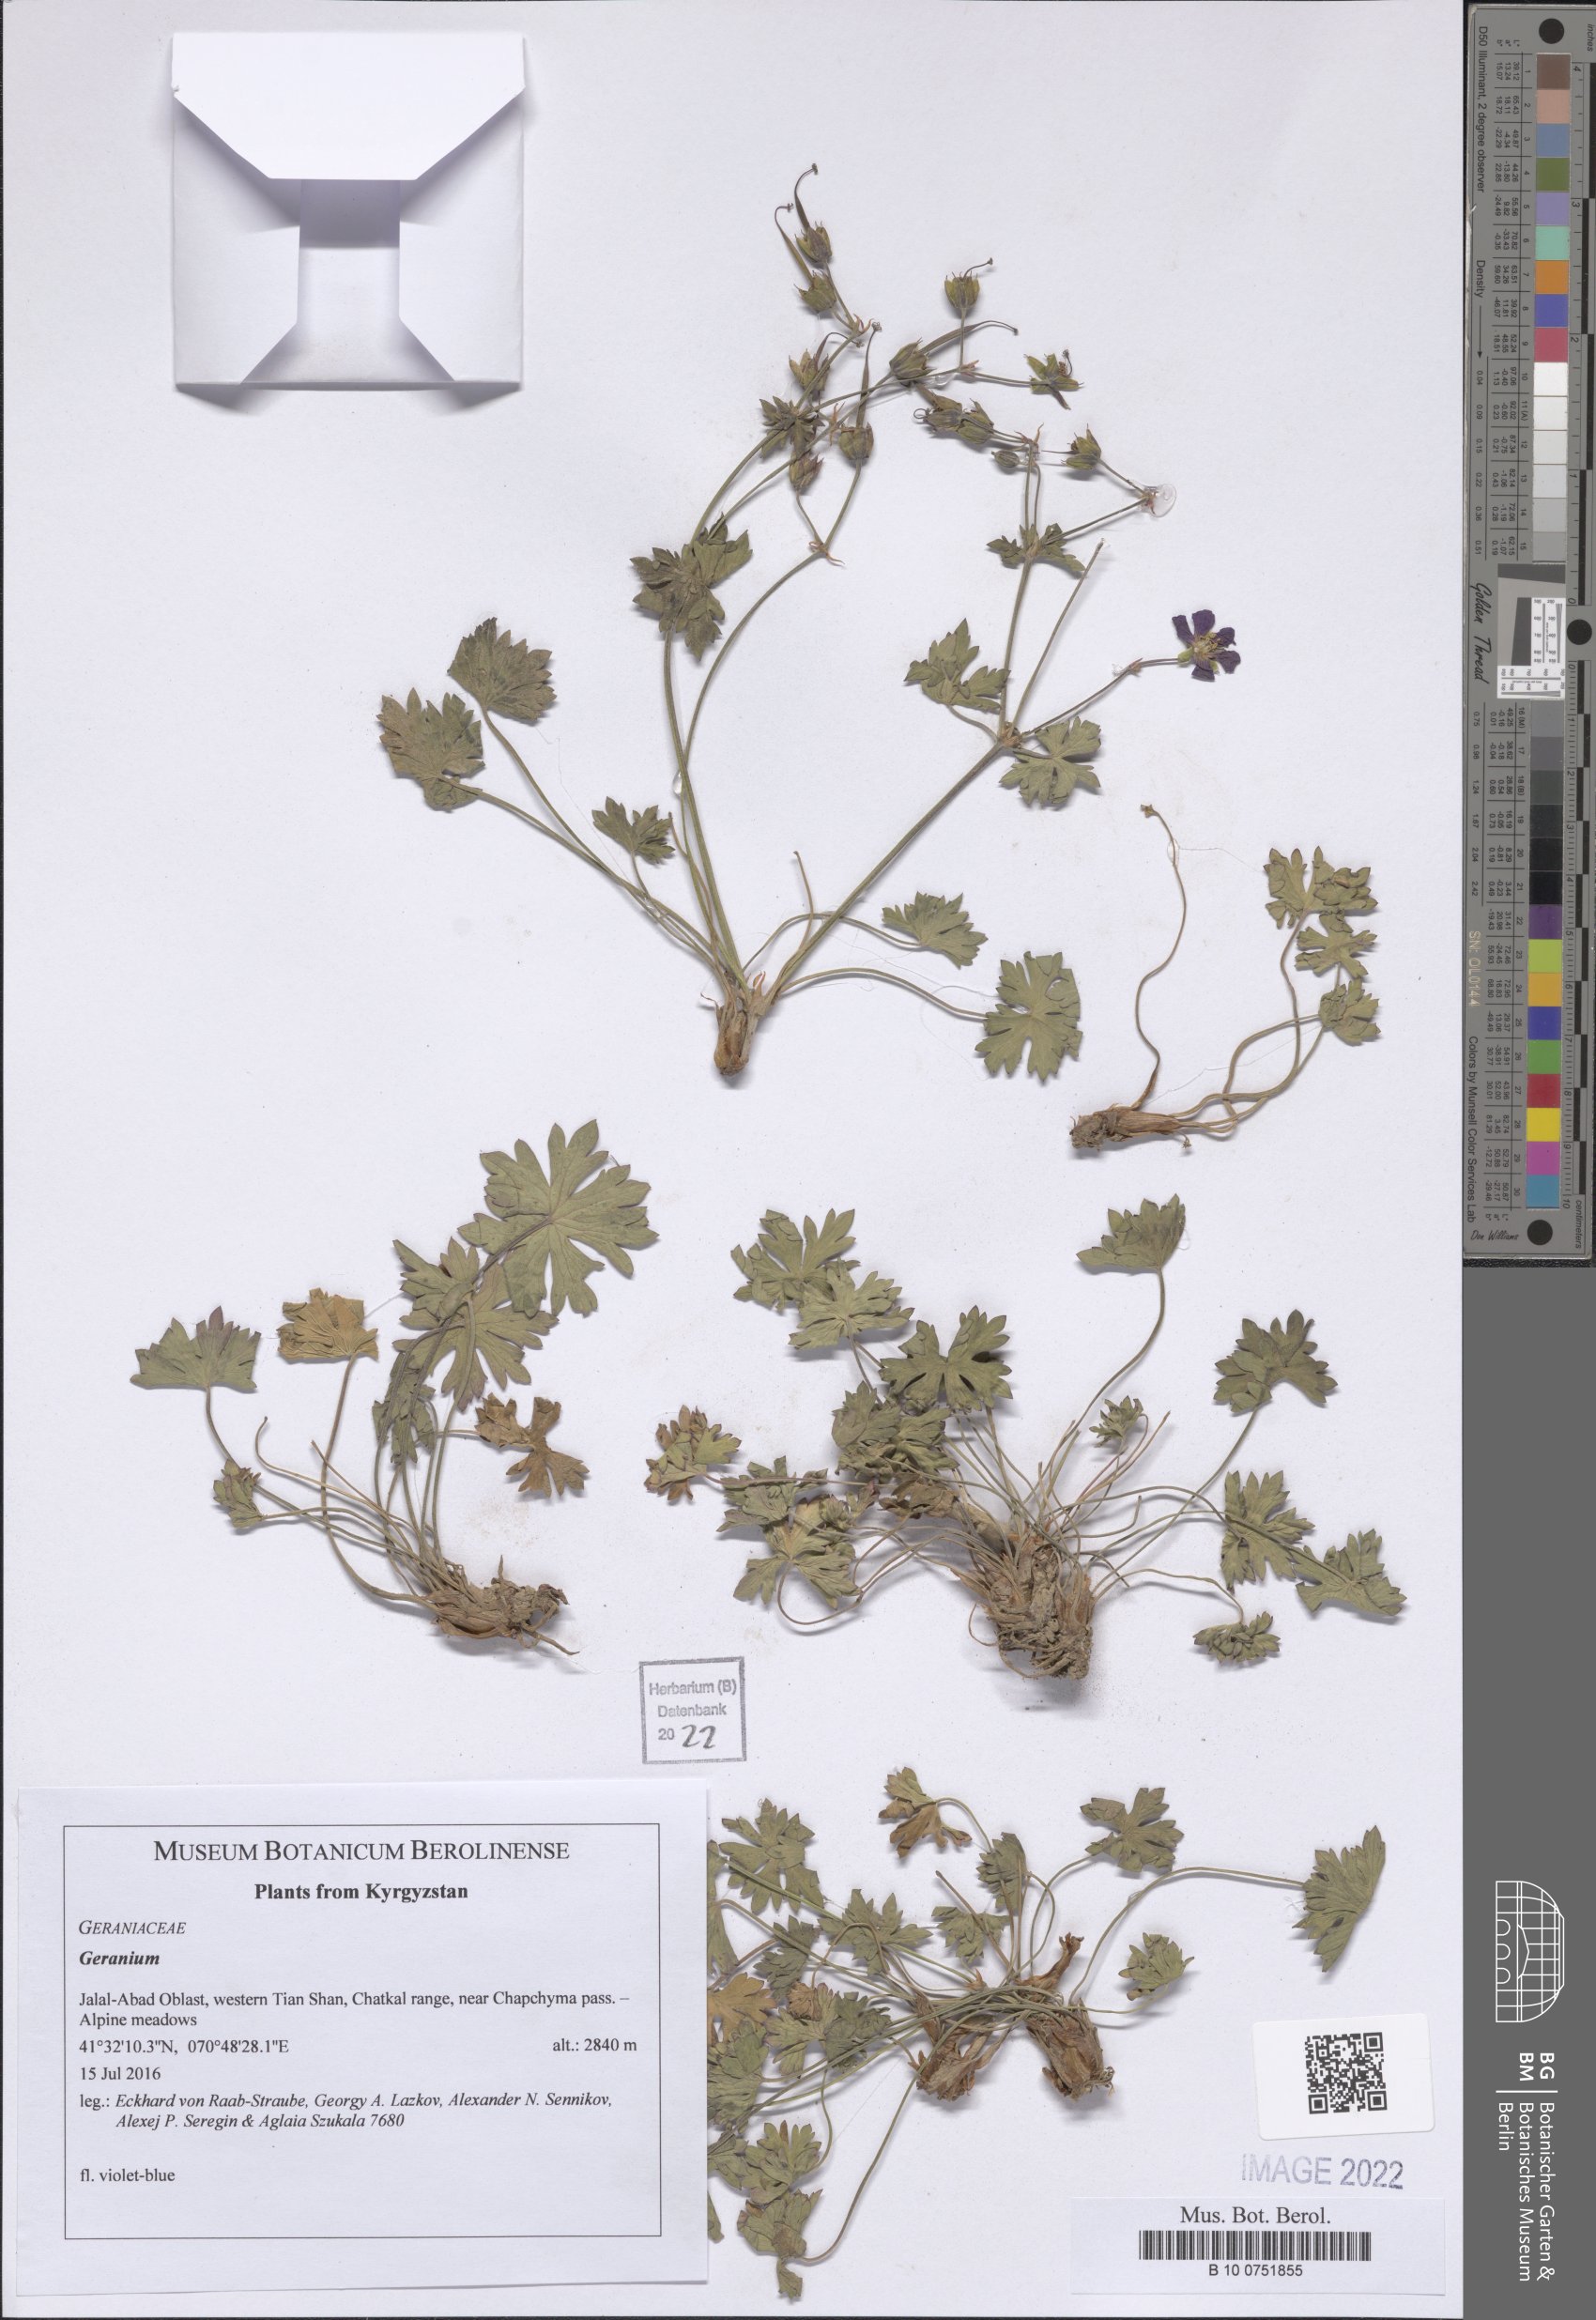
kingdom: Plantae
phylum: Tracheophyta
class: Magnoliopsida
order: Geraniales
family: Geraniaceae
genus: Geranium
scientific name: Geranium
